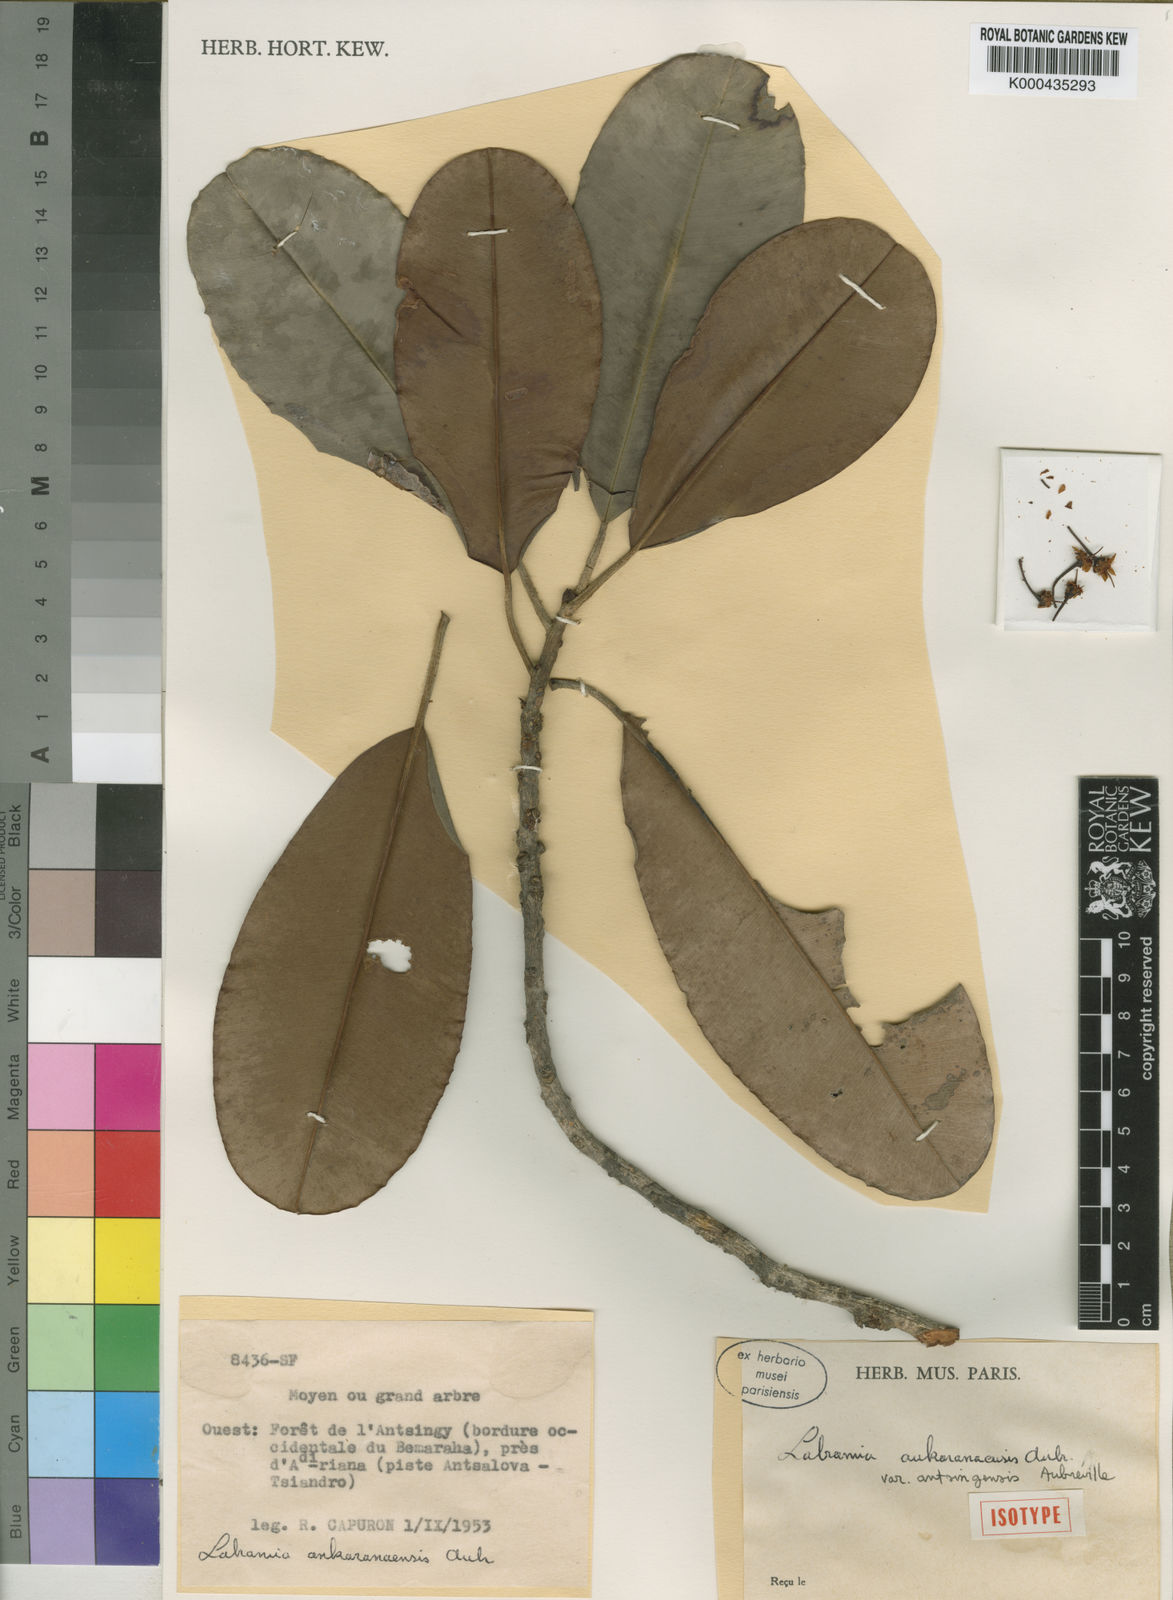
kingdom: Plantae
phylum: Tracheophyta
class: Magnoliopsida
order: Ericales
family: Sapotaceae
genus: Labramia
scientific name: Labramia
